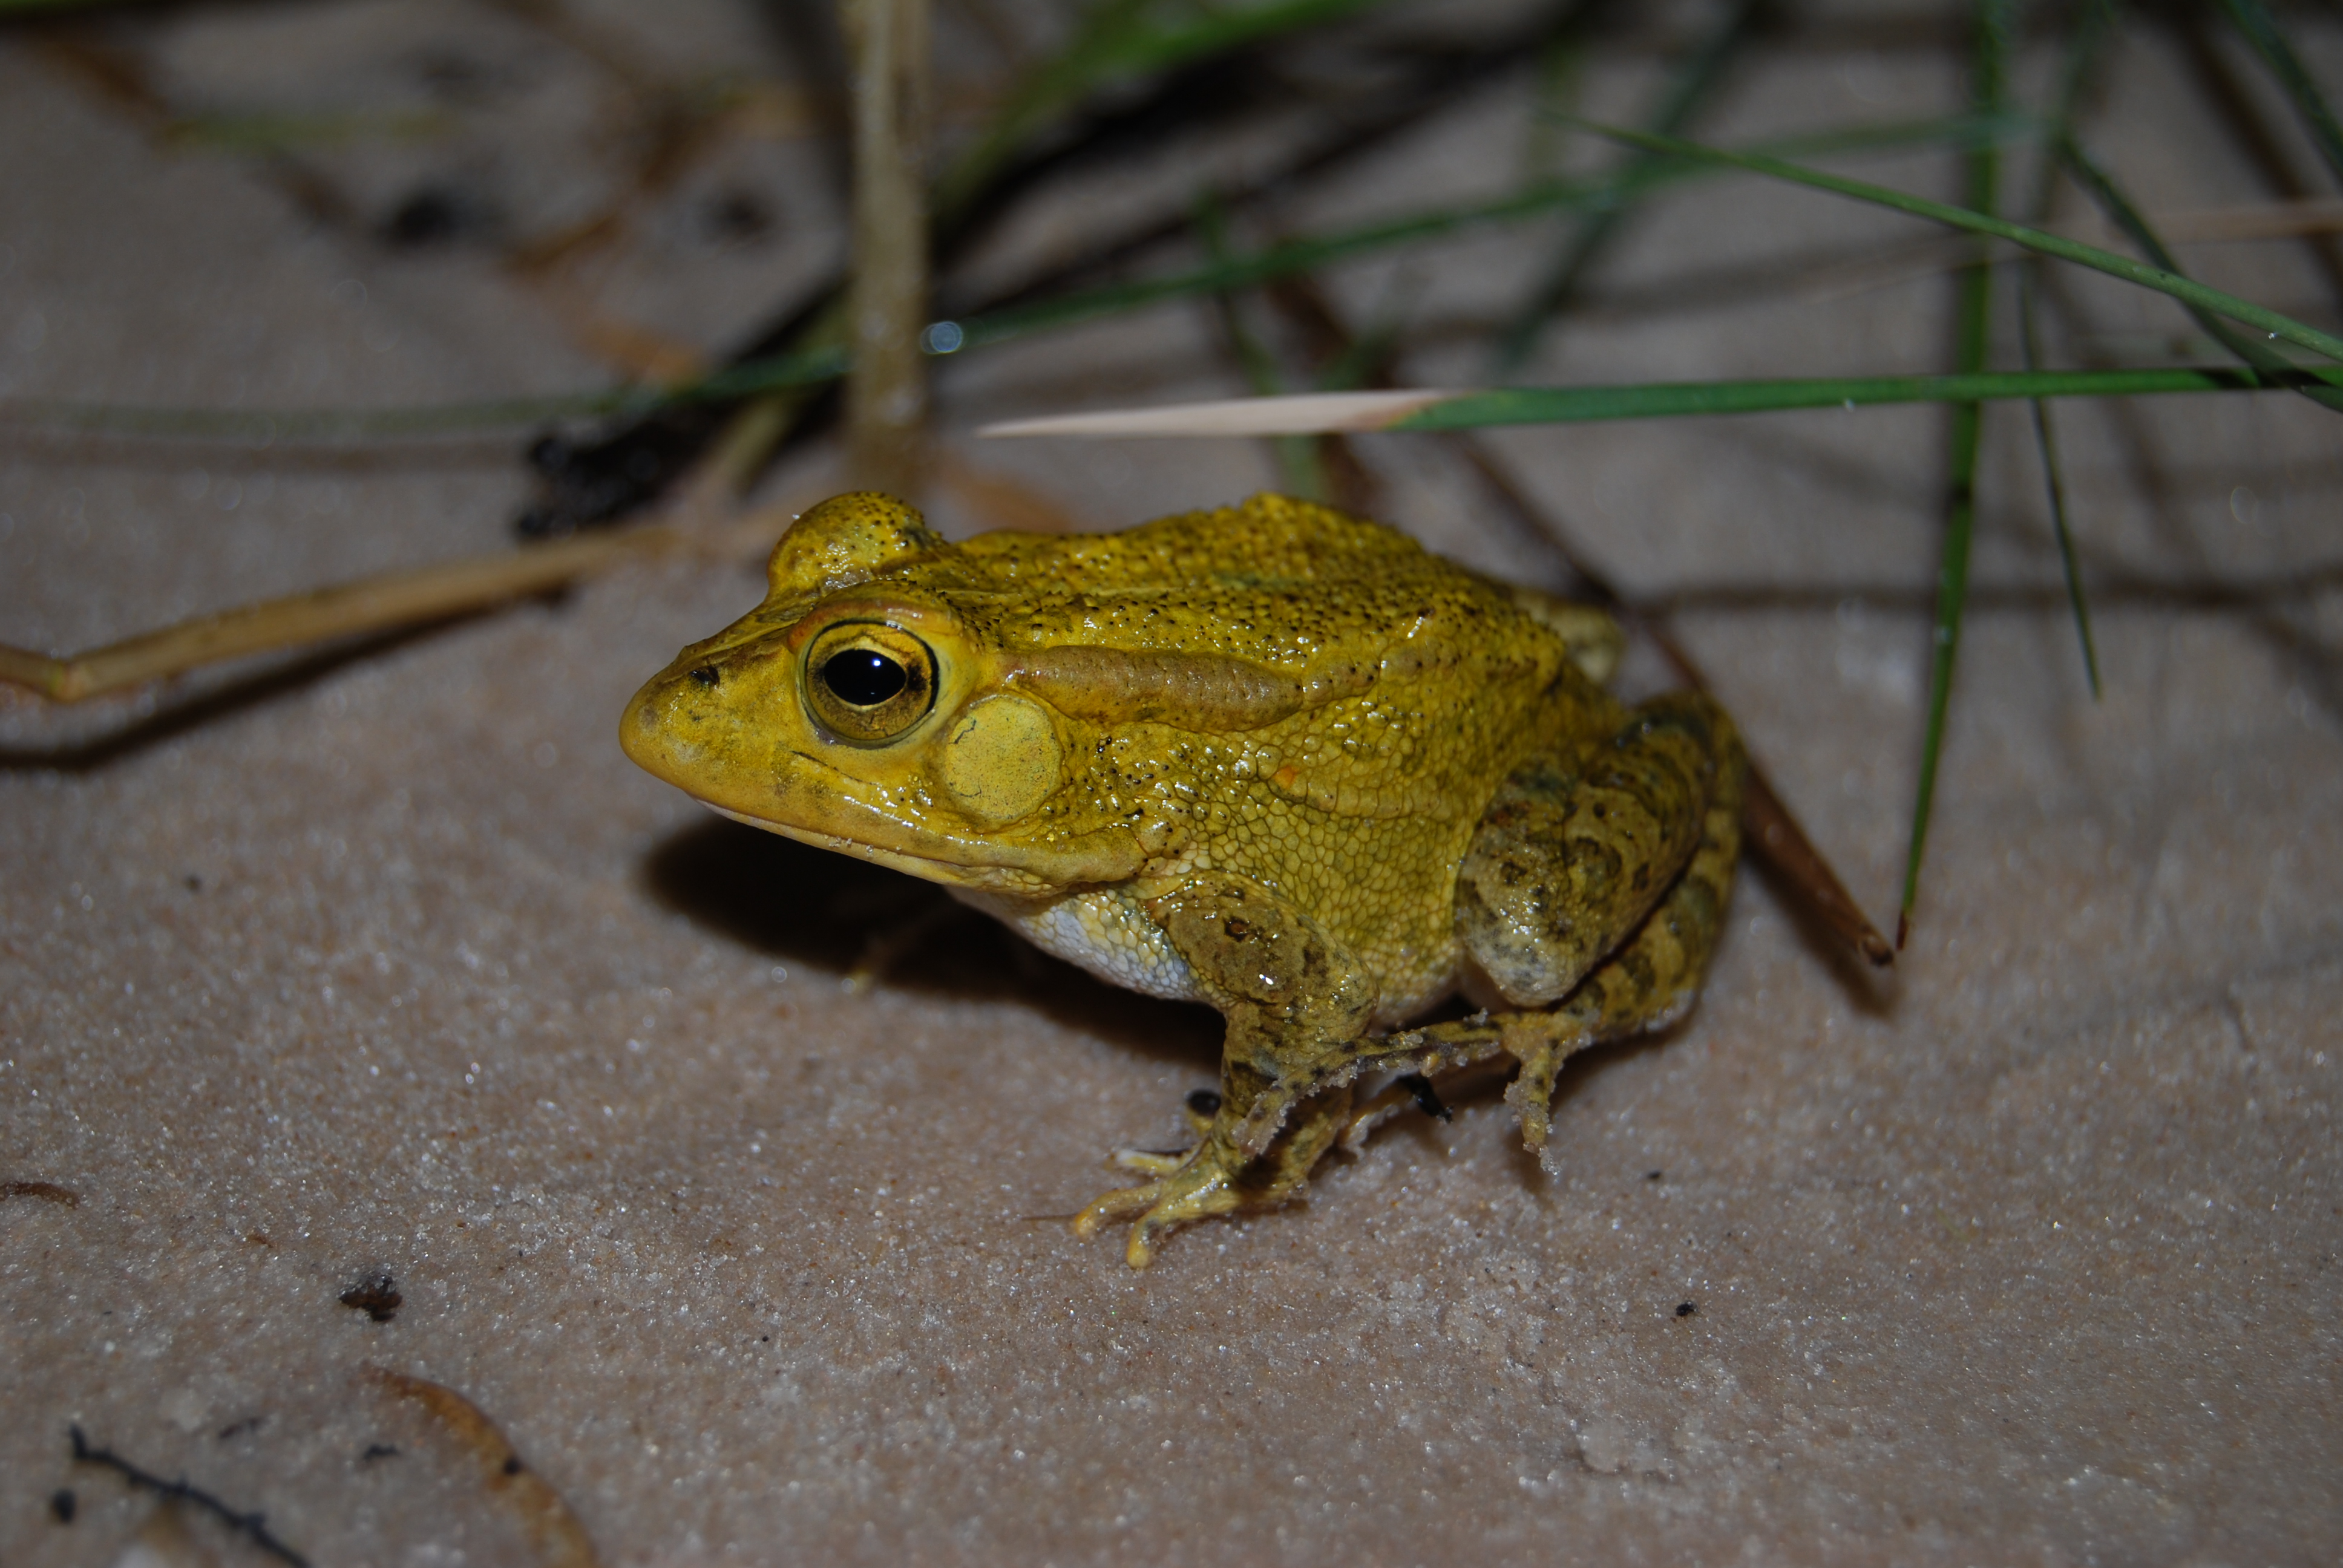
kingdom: Animalia
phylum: Chordata
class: Amphibia
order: Anura
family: Bufonidae
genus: Sclerophrys
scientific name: Sclerophrys lemairii
